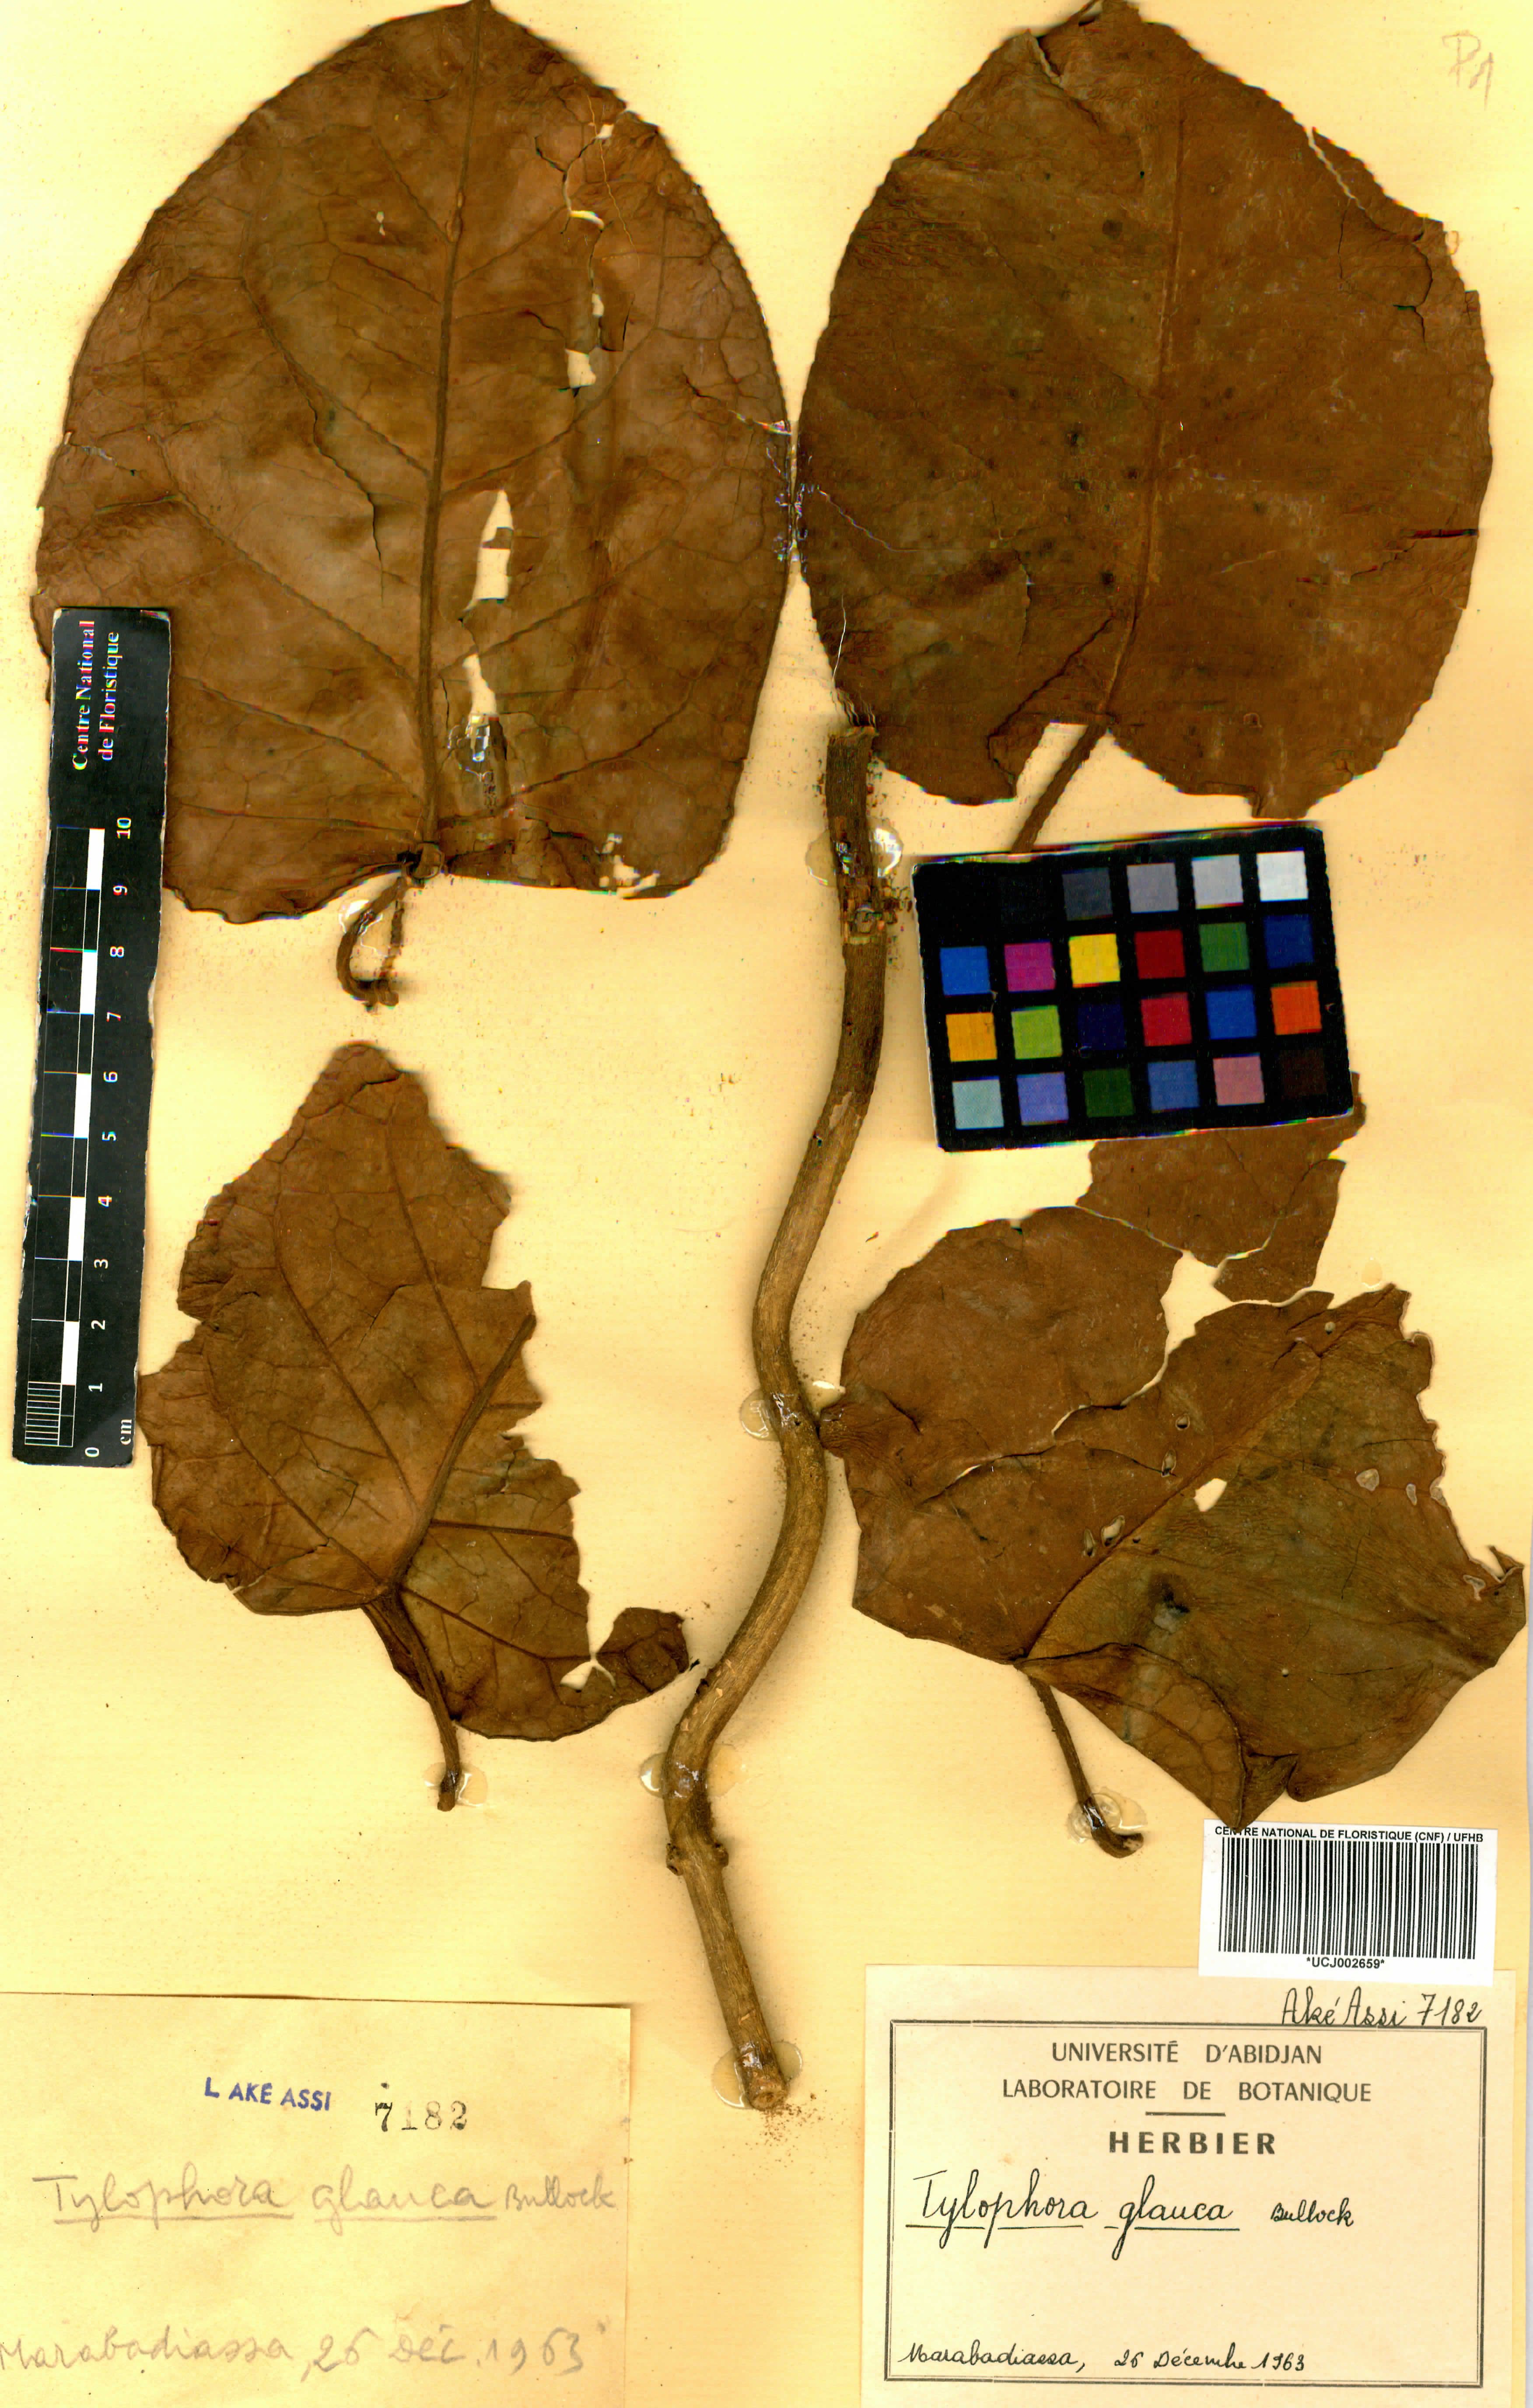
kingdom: Plantae
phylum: Tracheophyta
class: Magnoliopsida
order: Gentianales
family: Apocynaceae
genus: Vincetoxicum
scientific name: Vincetoxicum cameroonicum
